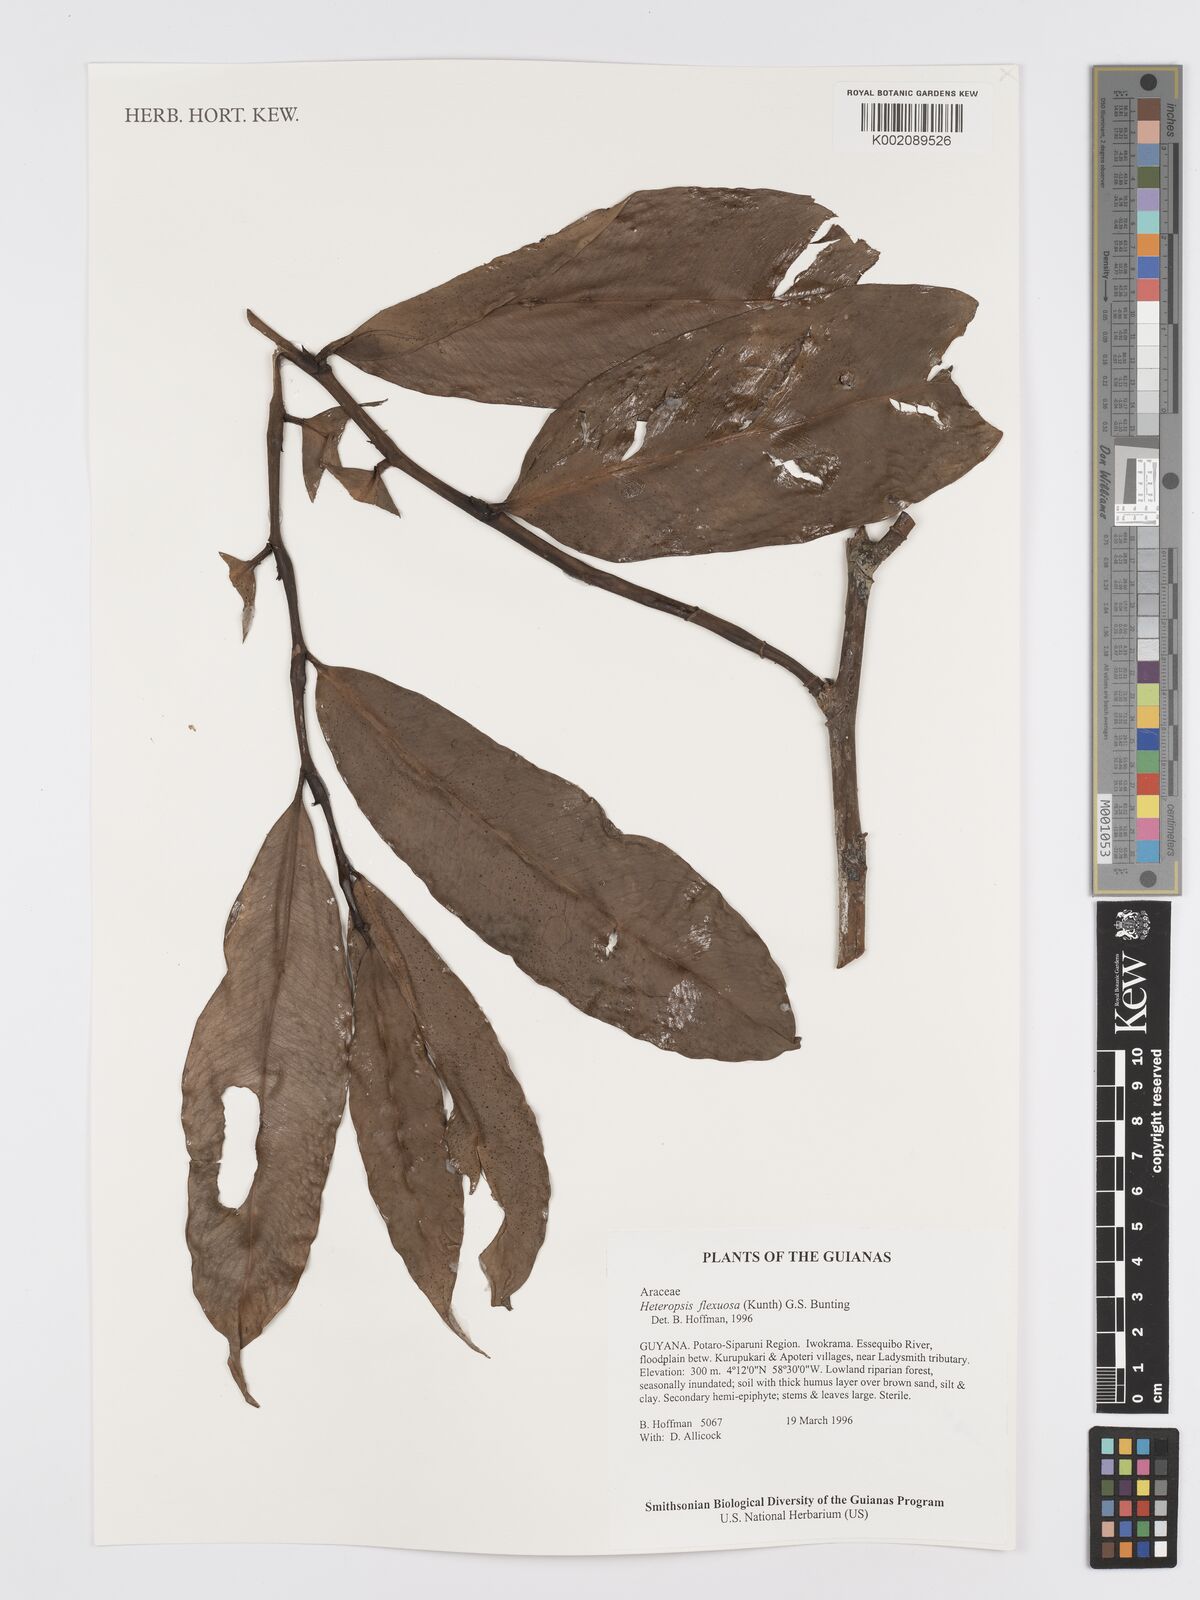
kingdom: Plantae
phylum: Tracheophyta
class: Liliopsida
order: Alismatales
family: Araceae
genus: Heteropsis
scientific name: Heteropsis flexuosa
